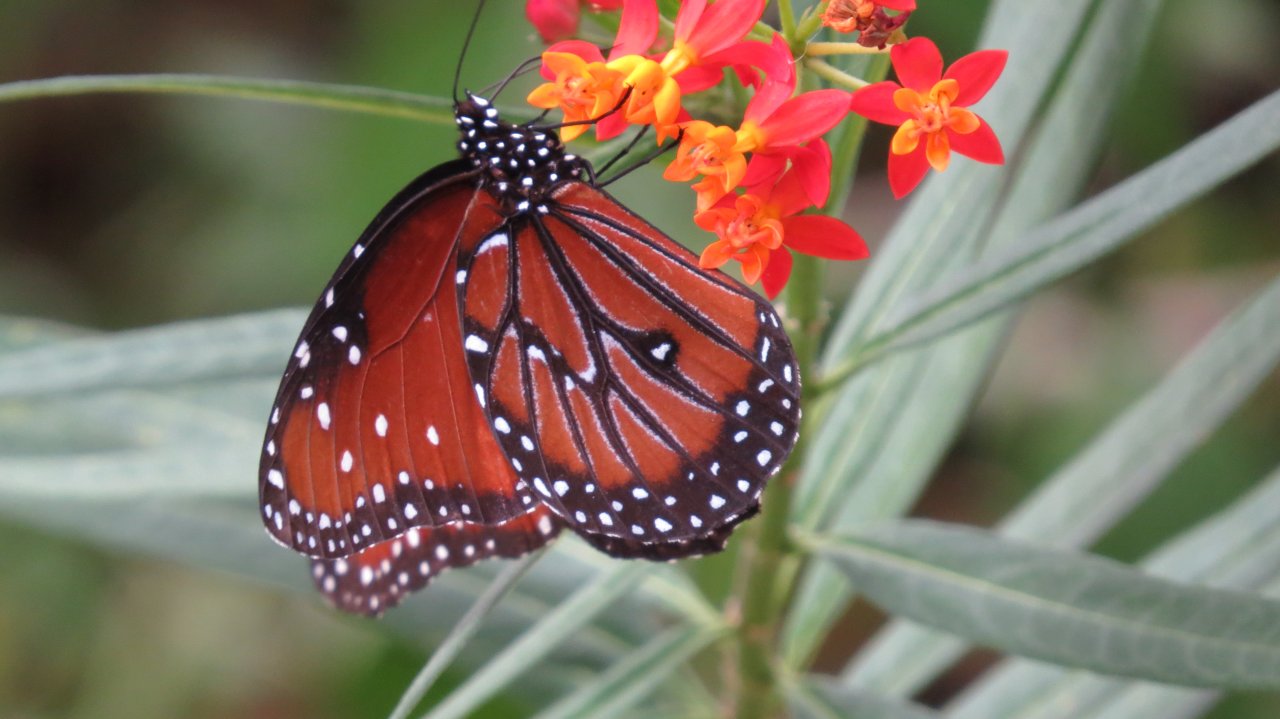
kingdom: Animalia
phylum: Arthropoda
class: Insecta
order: Lepidoptera
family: Nymphalidae
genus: Danaus
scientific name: Danaus gilippus
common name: Queen
